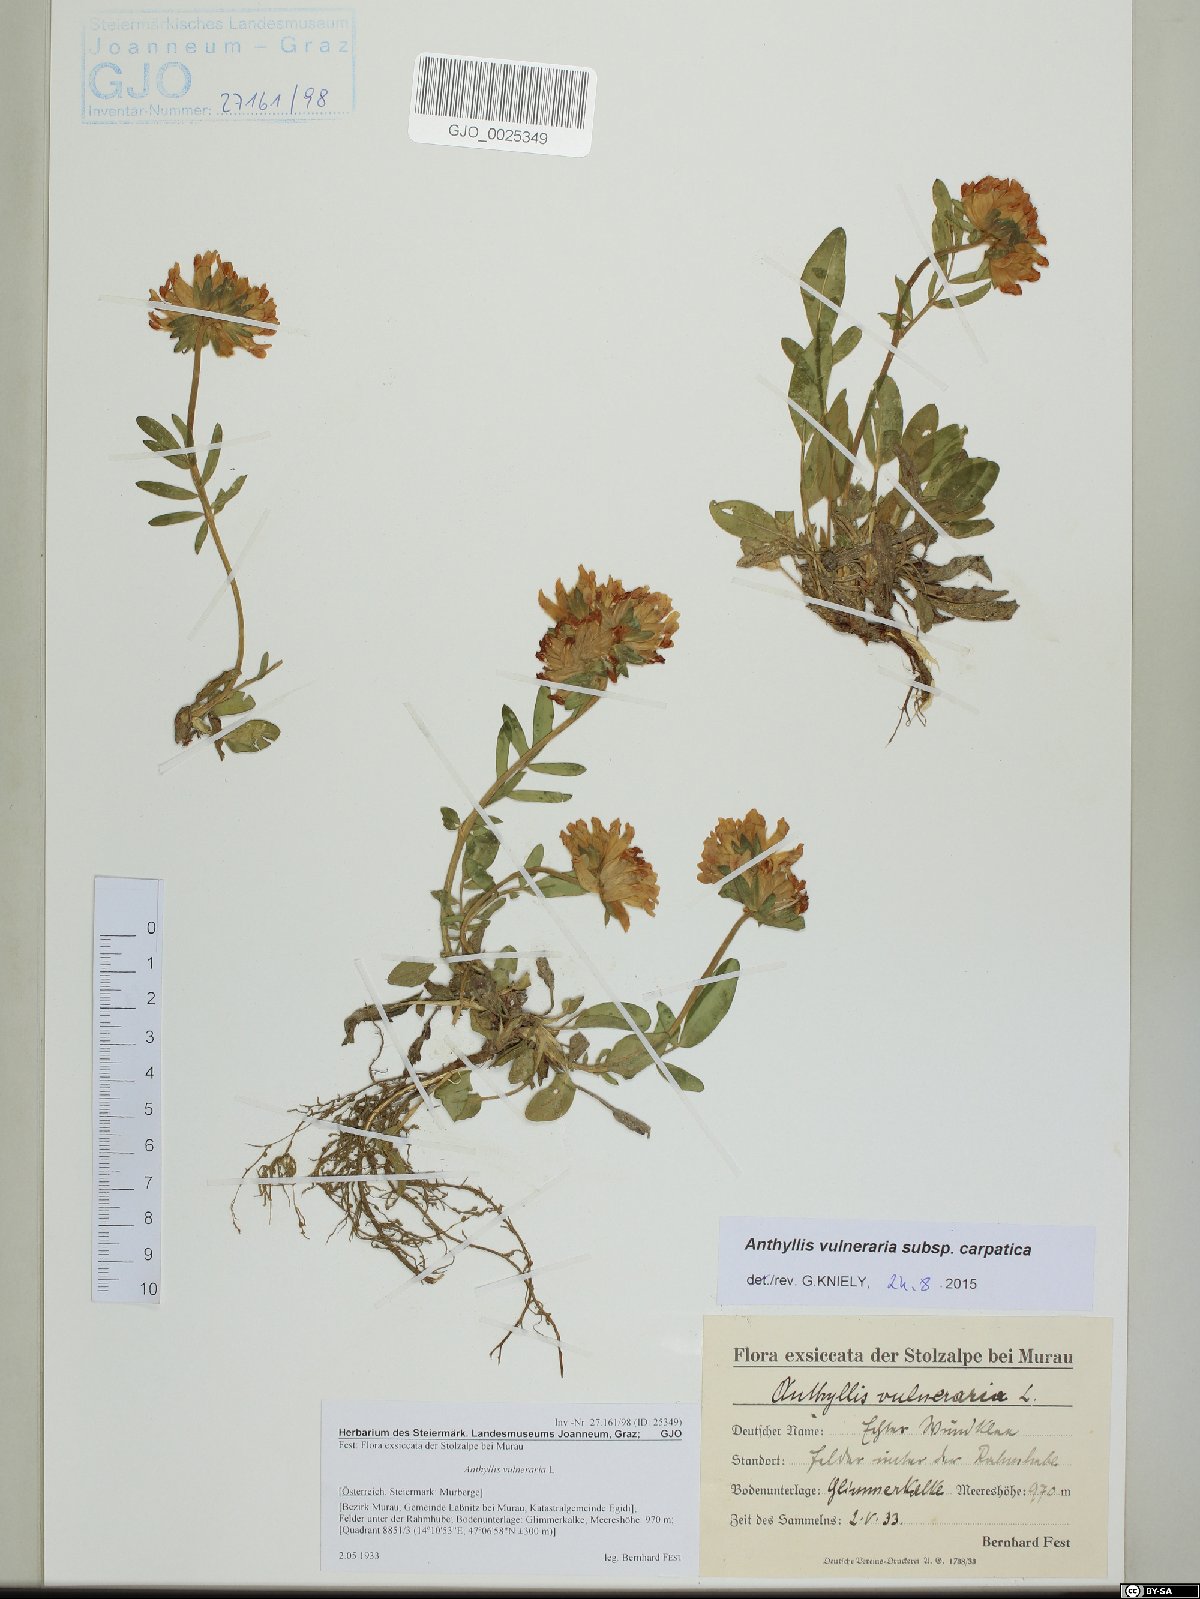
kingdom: Plantae
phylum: Tracheophyta
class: Magnoliopsida
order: Fabales
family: Fabaceae
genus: Anthyllis
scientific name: Anthyllis vulneraria
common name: Kidney vetch
